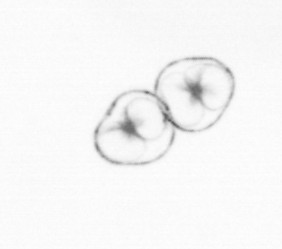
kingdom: Chromista
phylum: Myzozoa
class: Dinophyceae
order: Noctilucales
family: Noctilucaceae
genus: Noctiluca
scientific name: Noctiluca scintillans
